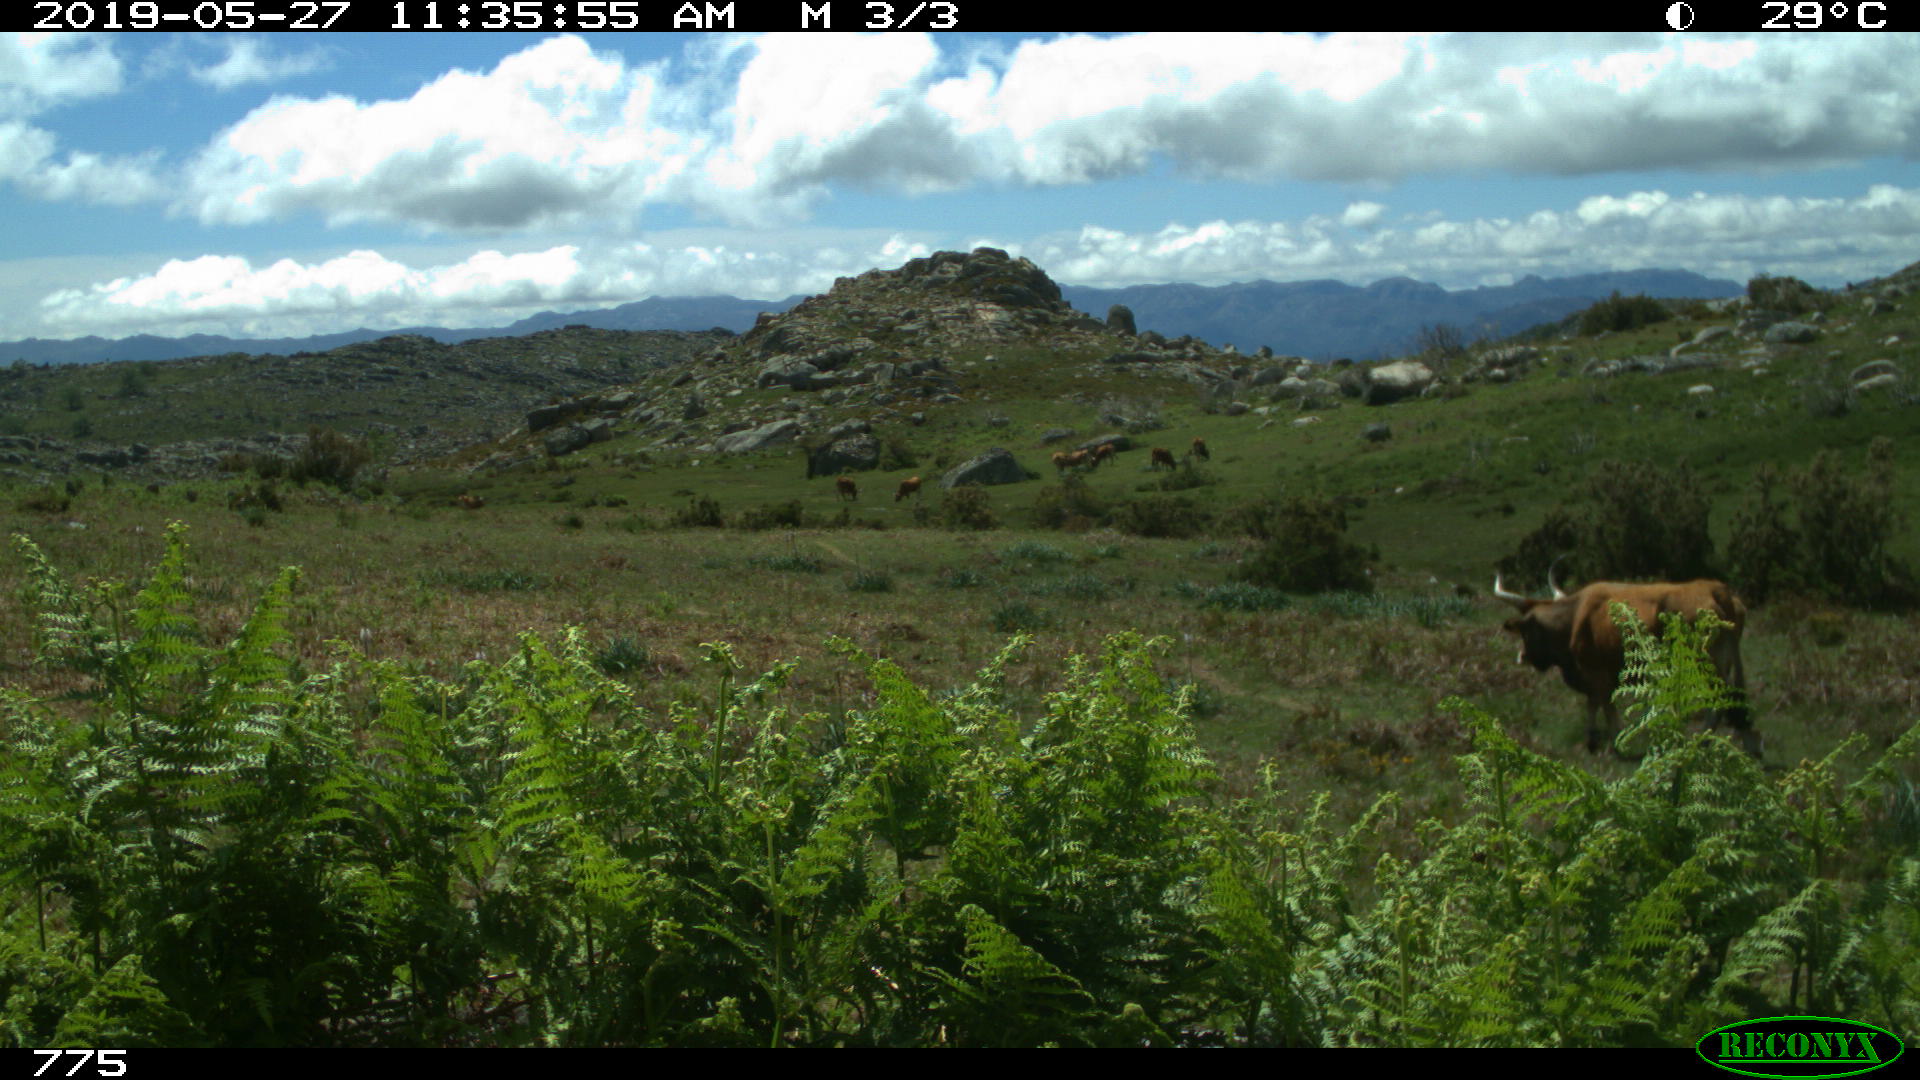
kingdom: Animalia
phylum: Chordata
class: Mammalia
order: Artiodactyla
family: Bovidae
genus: Bos
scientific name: Bos taurus
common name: Domesticated cattle
